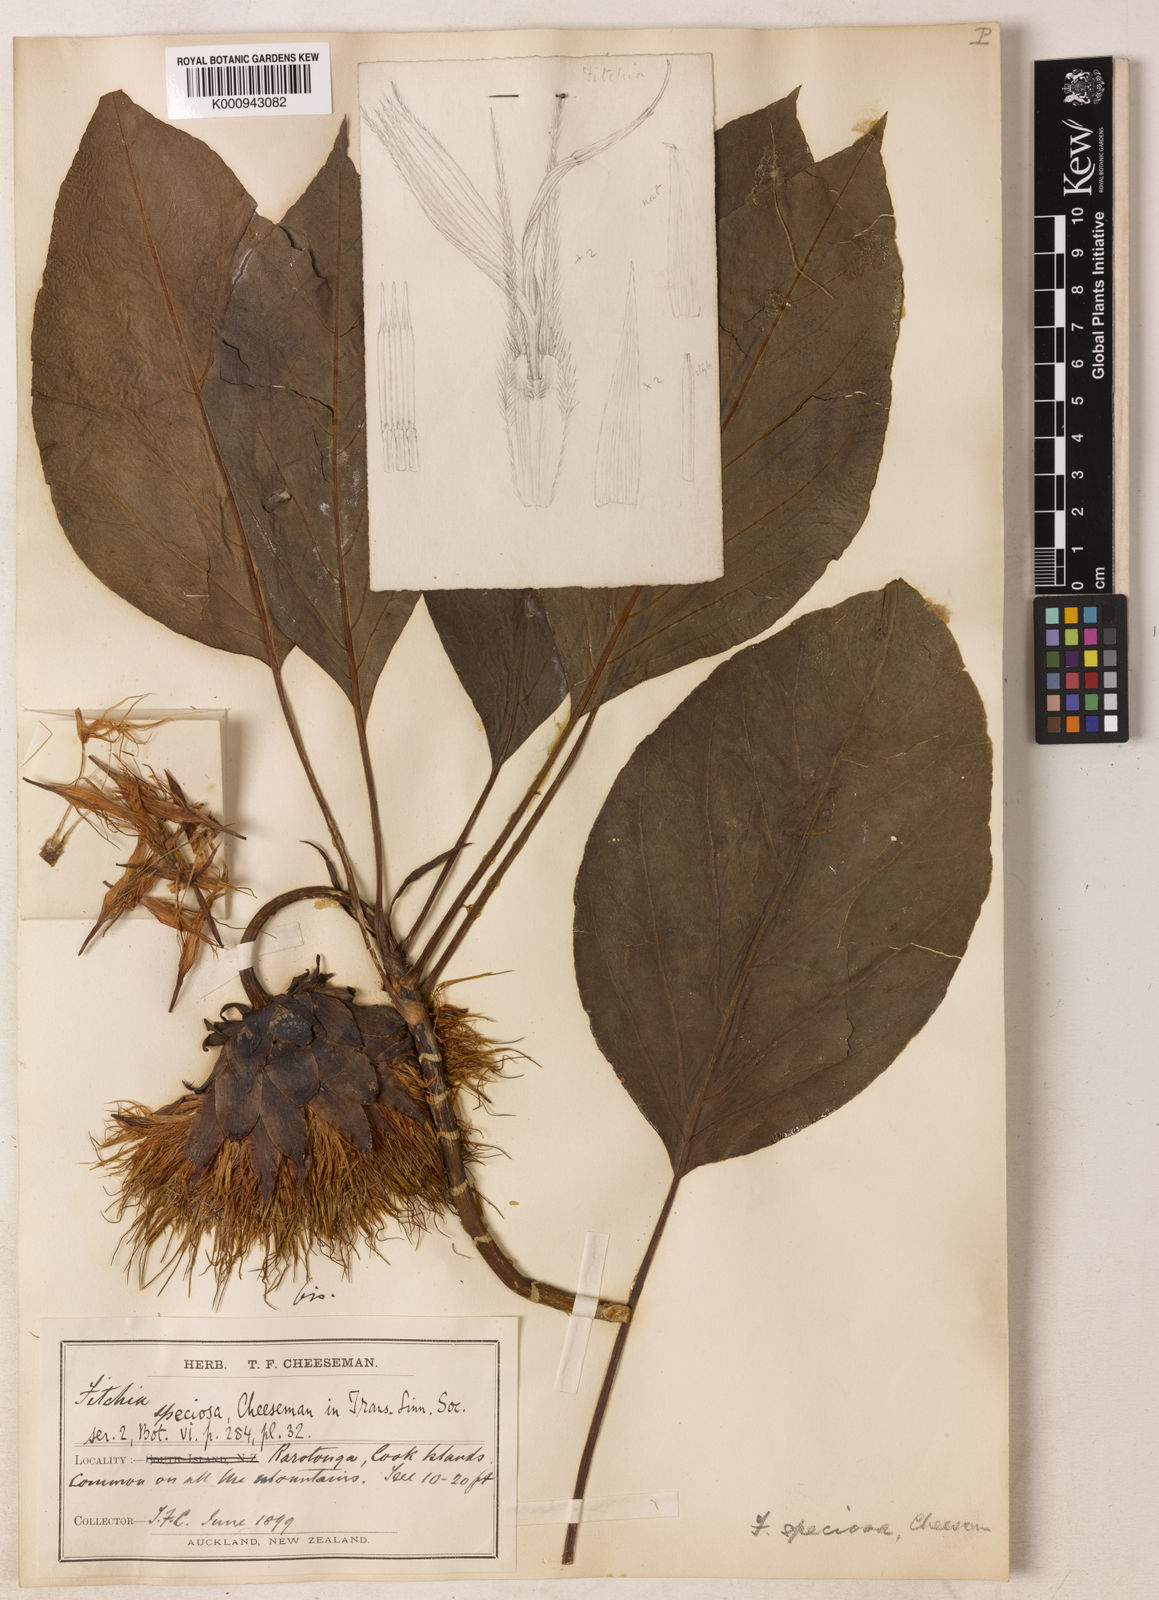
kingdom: Plantae
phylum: Tracheophyta
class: Magnoliopsida
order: Asterales
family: Asteraceae
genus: Fitchia
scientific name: Fitchia speciosa
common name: Burr daisytree
